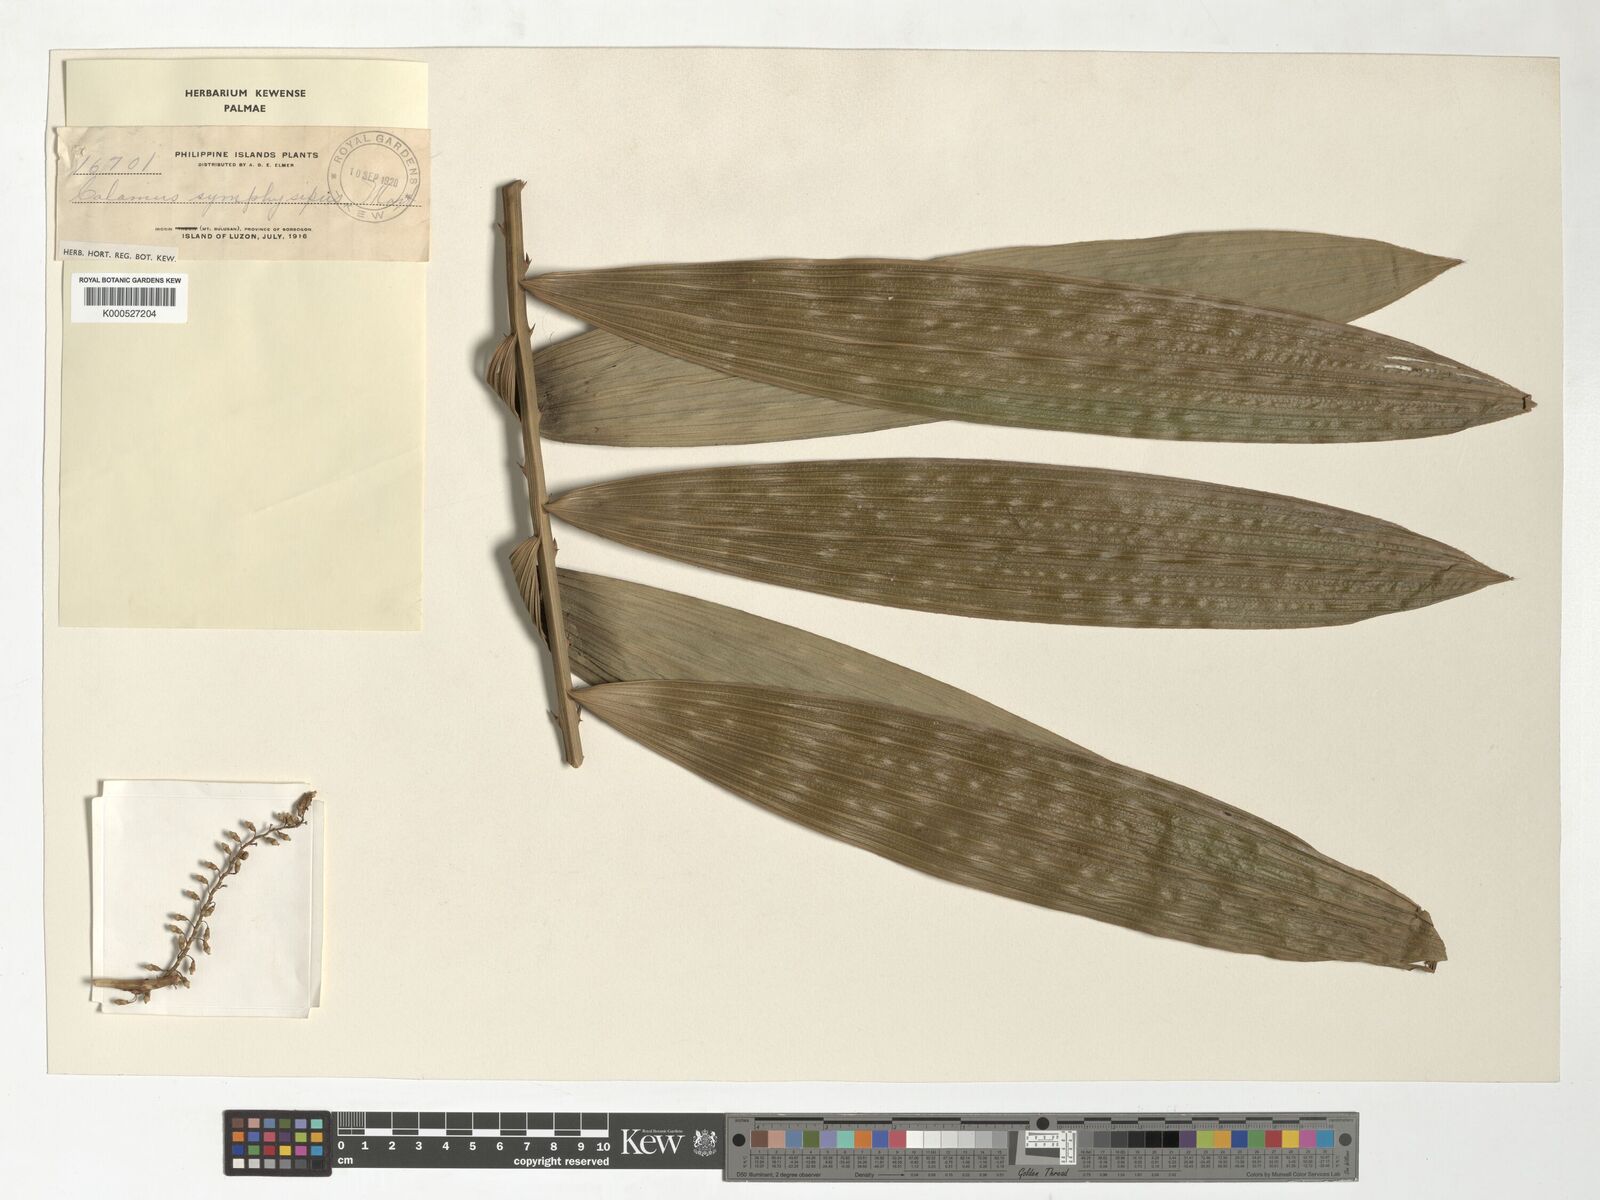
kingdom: Plantae
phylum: Tracheophyta
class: Liliopsida
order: Arecales
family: Arecaceae
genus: Calamus
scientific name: Calamus symphysipus
